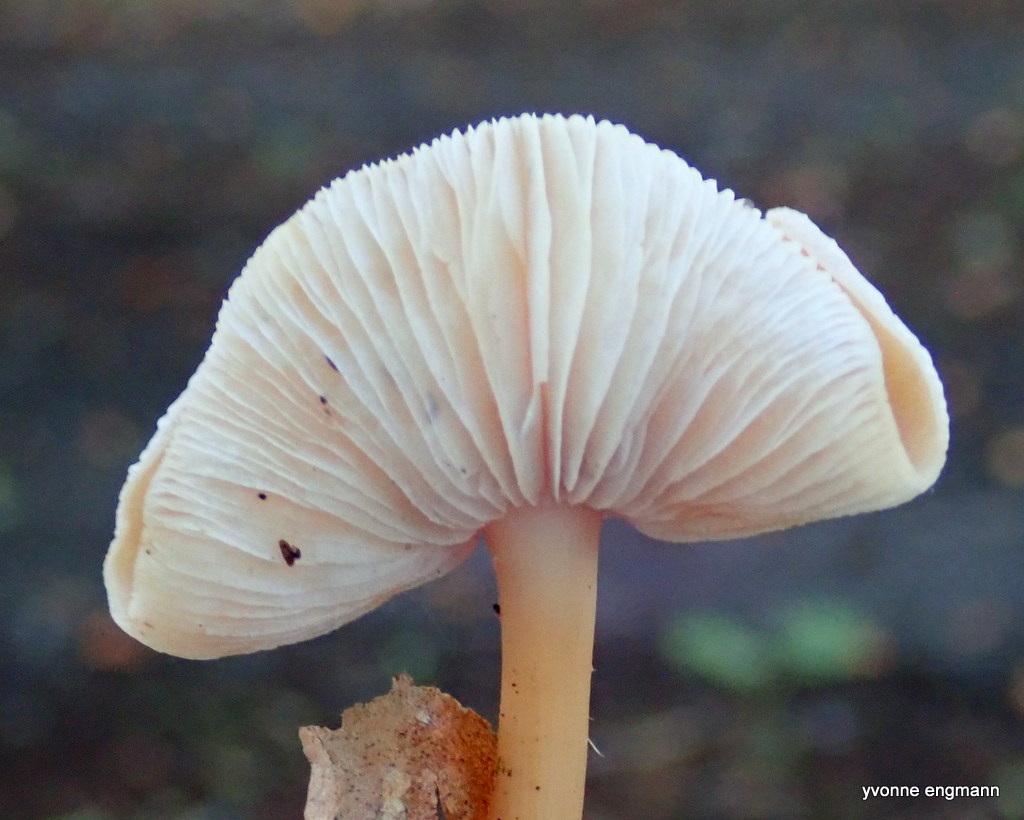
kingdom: Fungi
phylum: Basidiomycota
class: Agaricomycetes
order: Agaricales
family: Omphalotaceae
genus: Gymnopus
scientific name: Gymnopus dryophilus
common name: løv-fladhat
